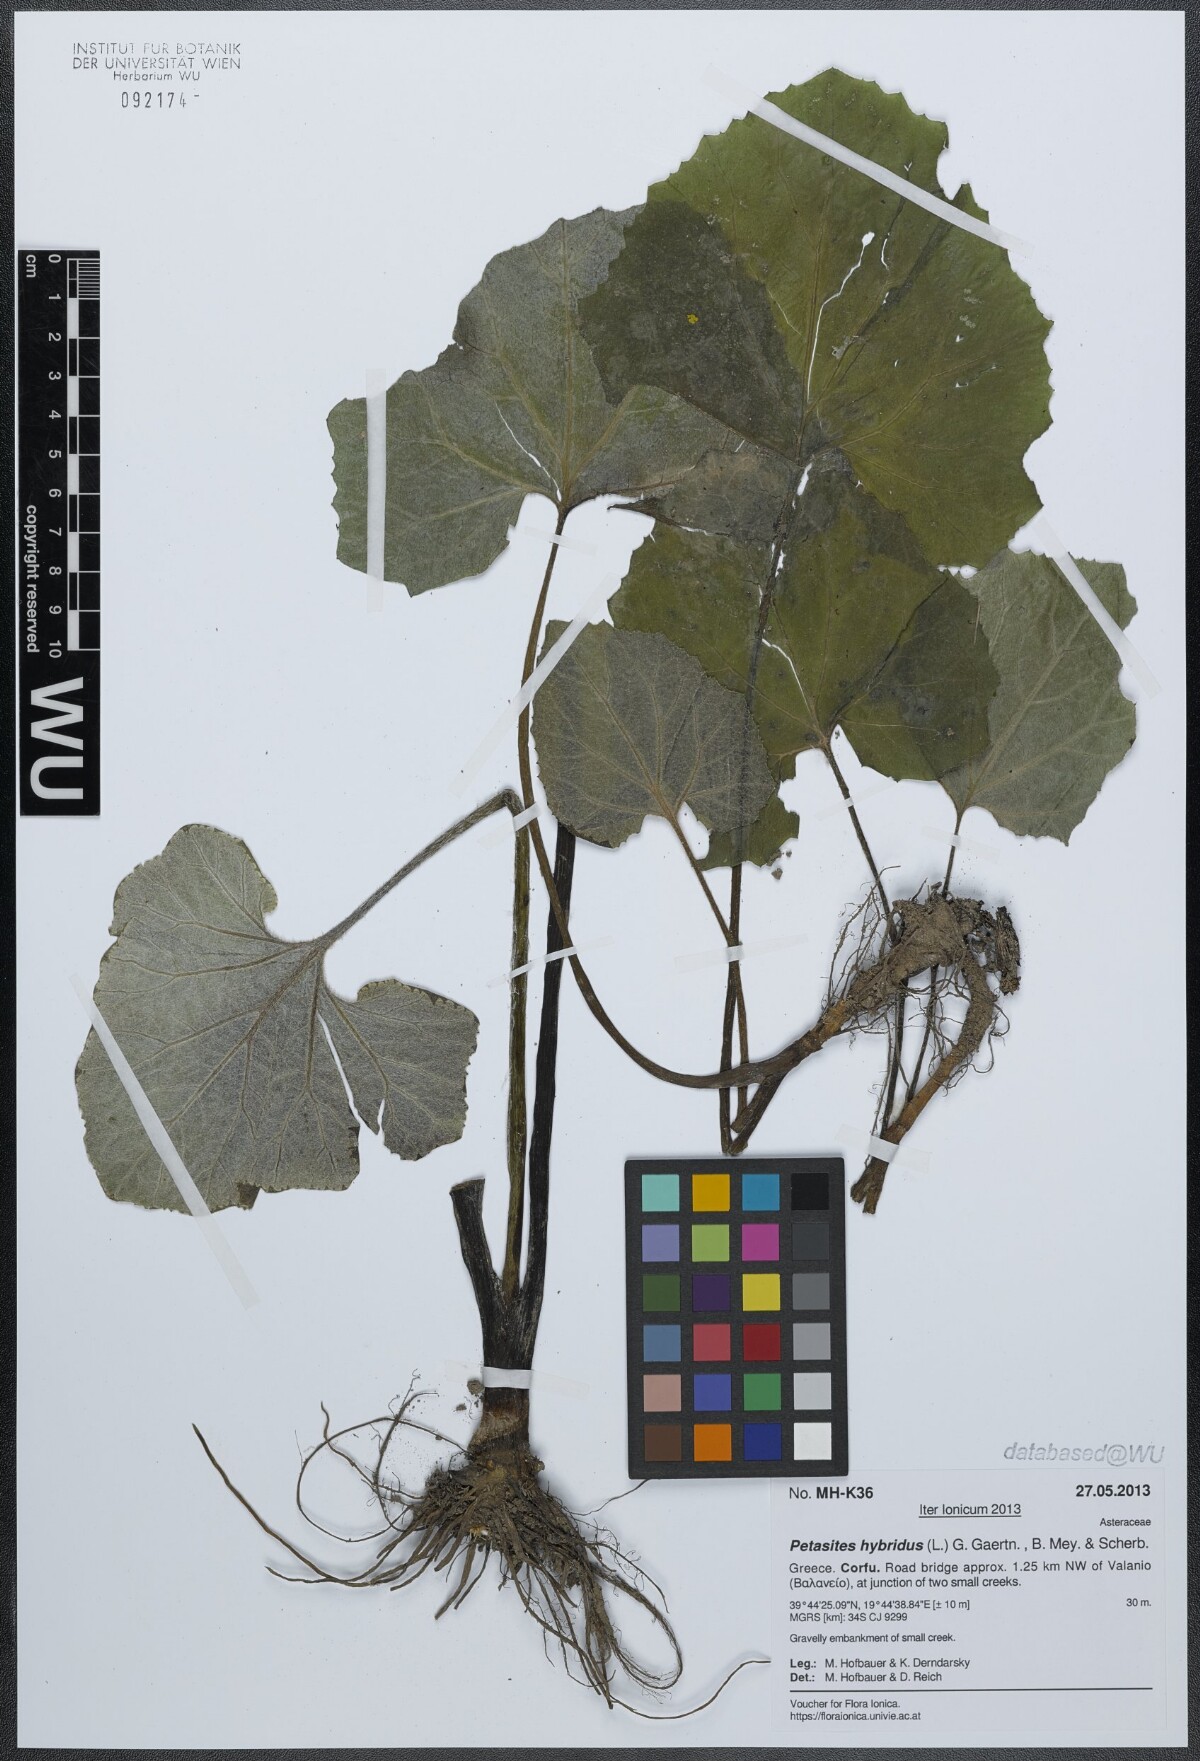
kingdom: Plantae
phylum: Tracheophyta
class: Magnoliopsida
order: Asterales
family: Asteraceae
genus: Petasites
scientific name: Petasites hybridus
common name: Butterbur
